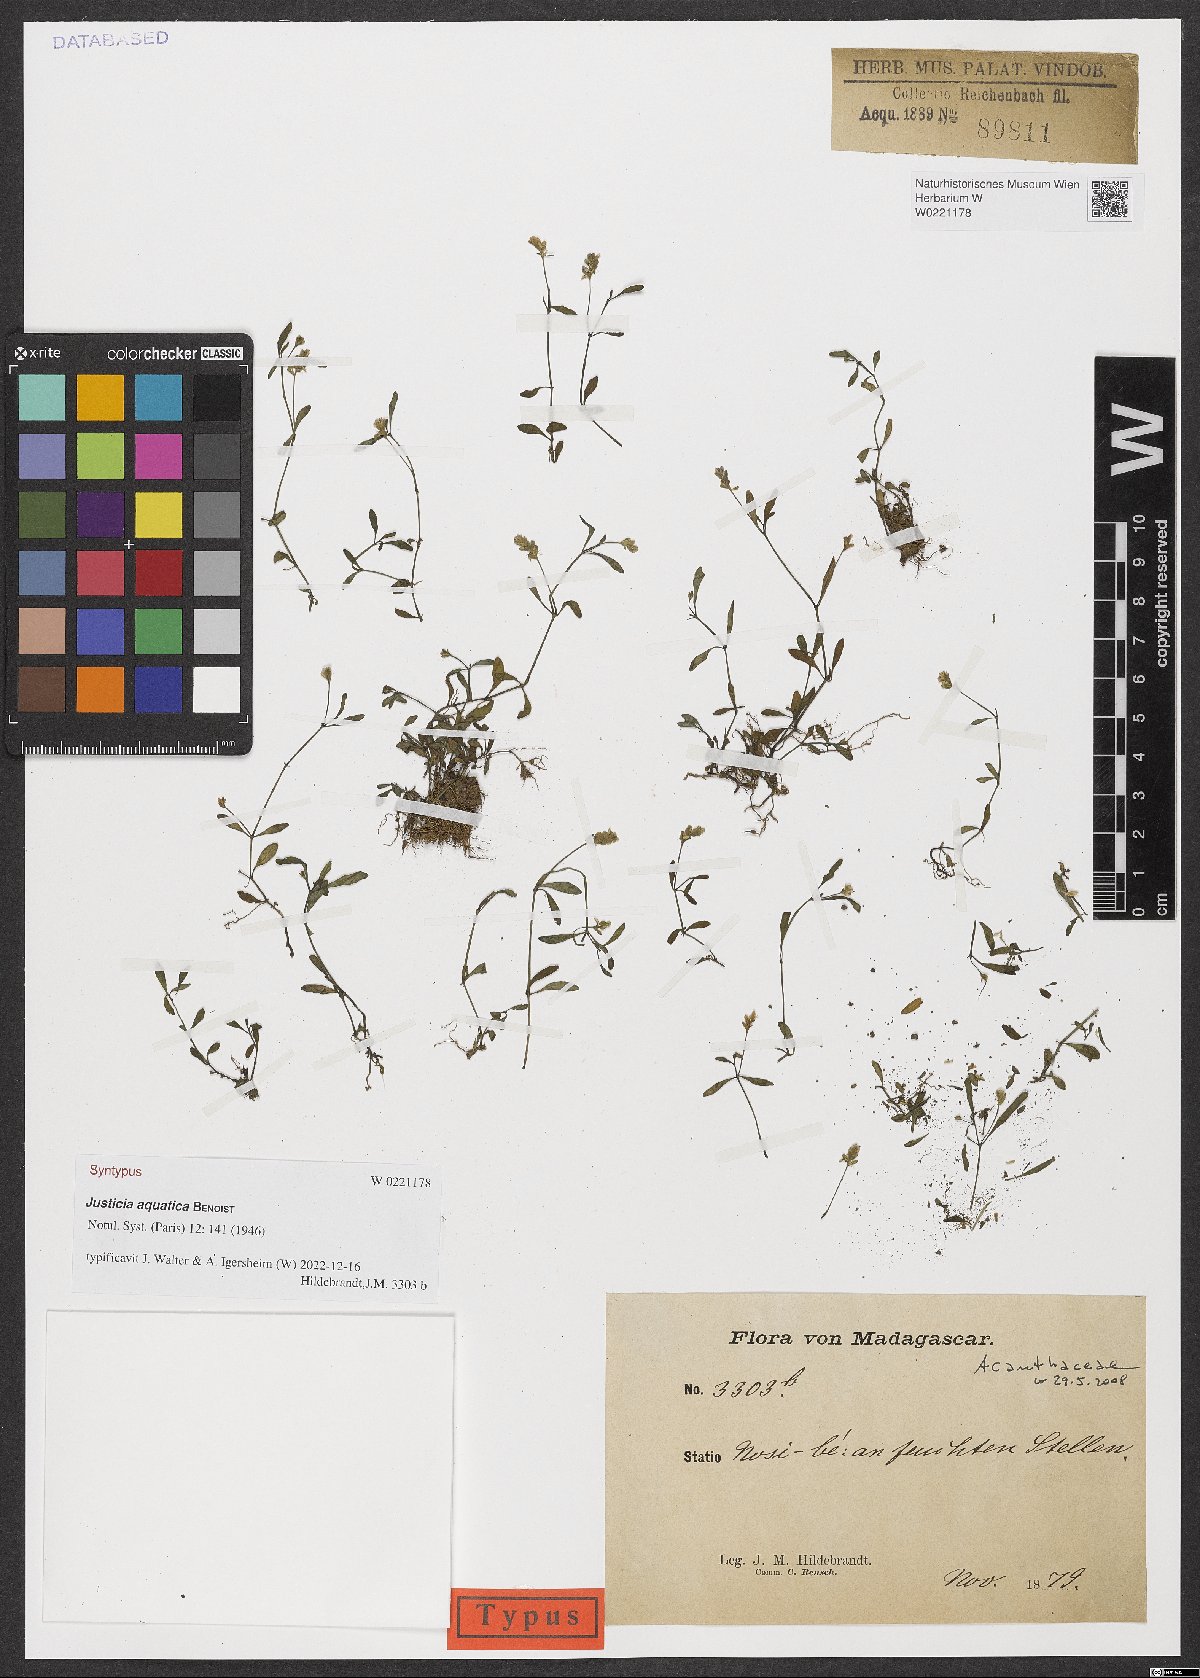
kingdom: Plantae
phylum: Tracheophyta
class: Magnoliopsida
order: Lamiales
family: Acanthaceae
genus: Justicia
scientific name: Justicia aquatica
